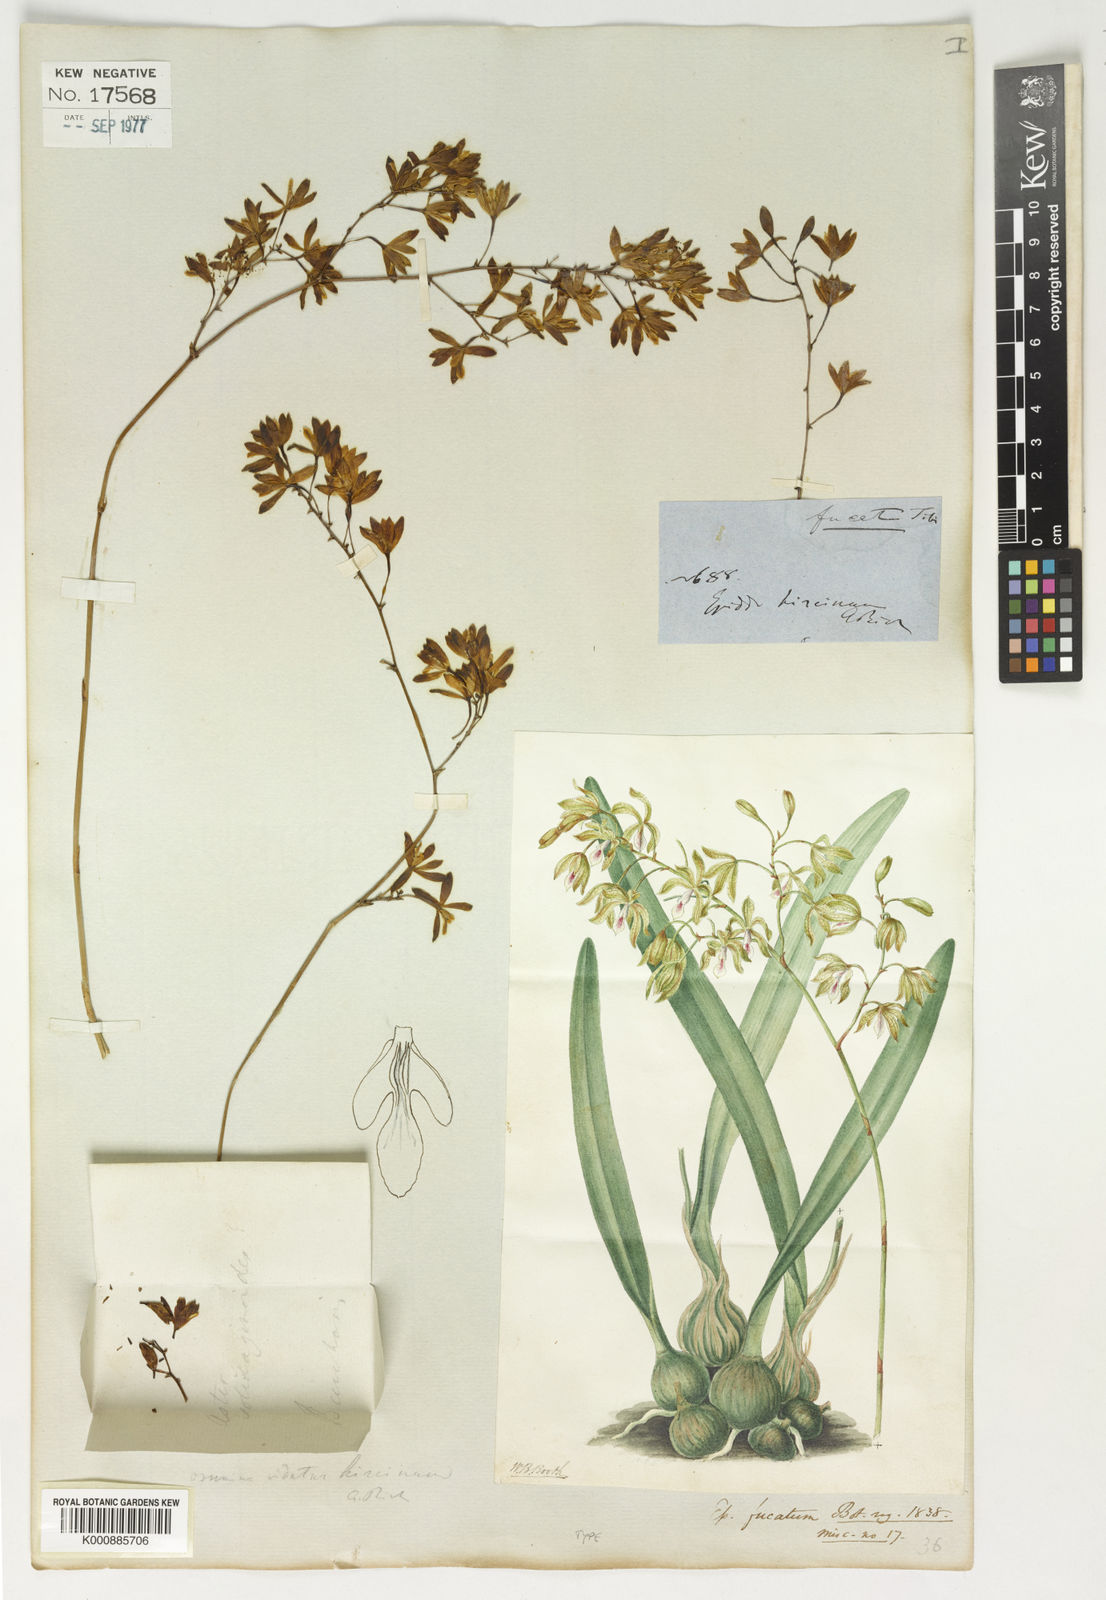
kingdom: Plantae
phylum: Tracheophyta
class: Liliopsida
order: Asparagales
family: Orchidaceae
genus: Encyclia
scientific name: Encyclia fucata
